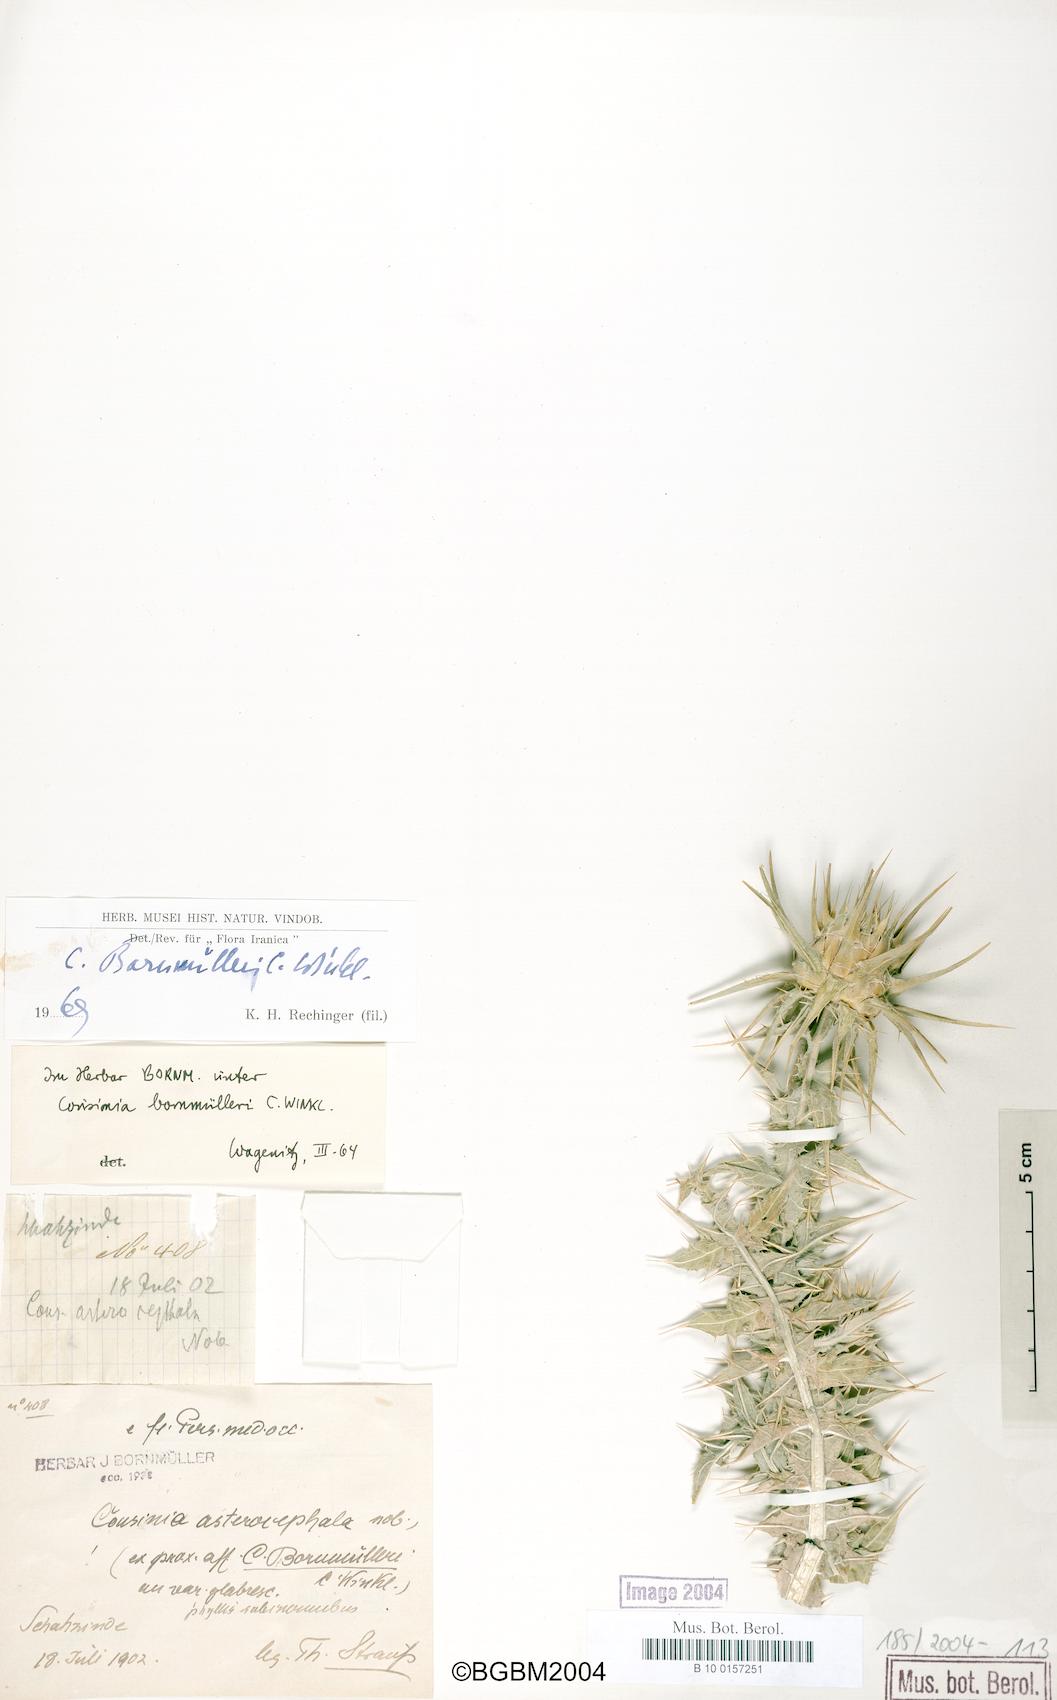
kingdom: Plantae
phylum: Tracheophyta
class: Magnoliopsida
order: Asterales
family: Asteraceae
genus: Cousinia
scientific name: Cousinia onopordioides
